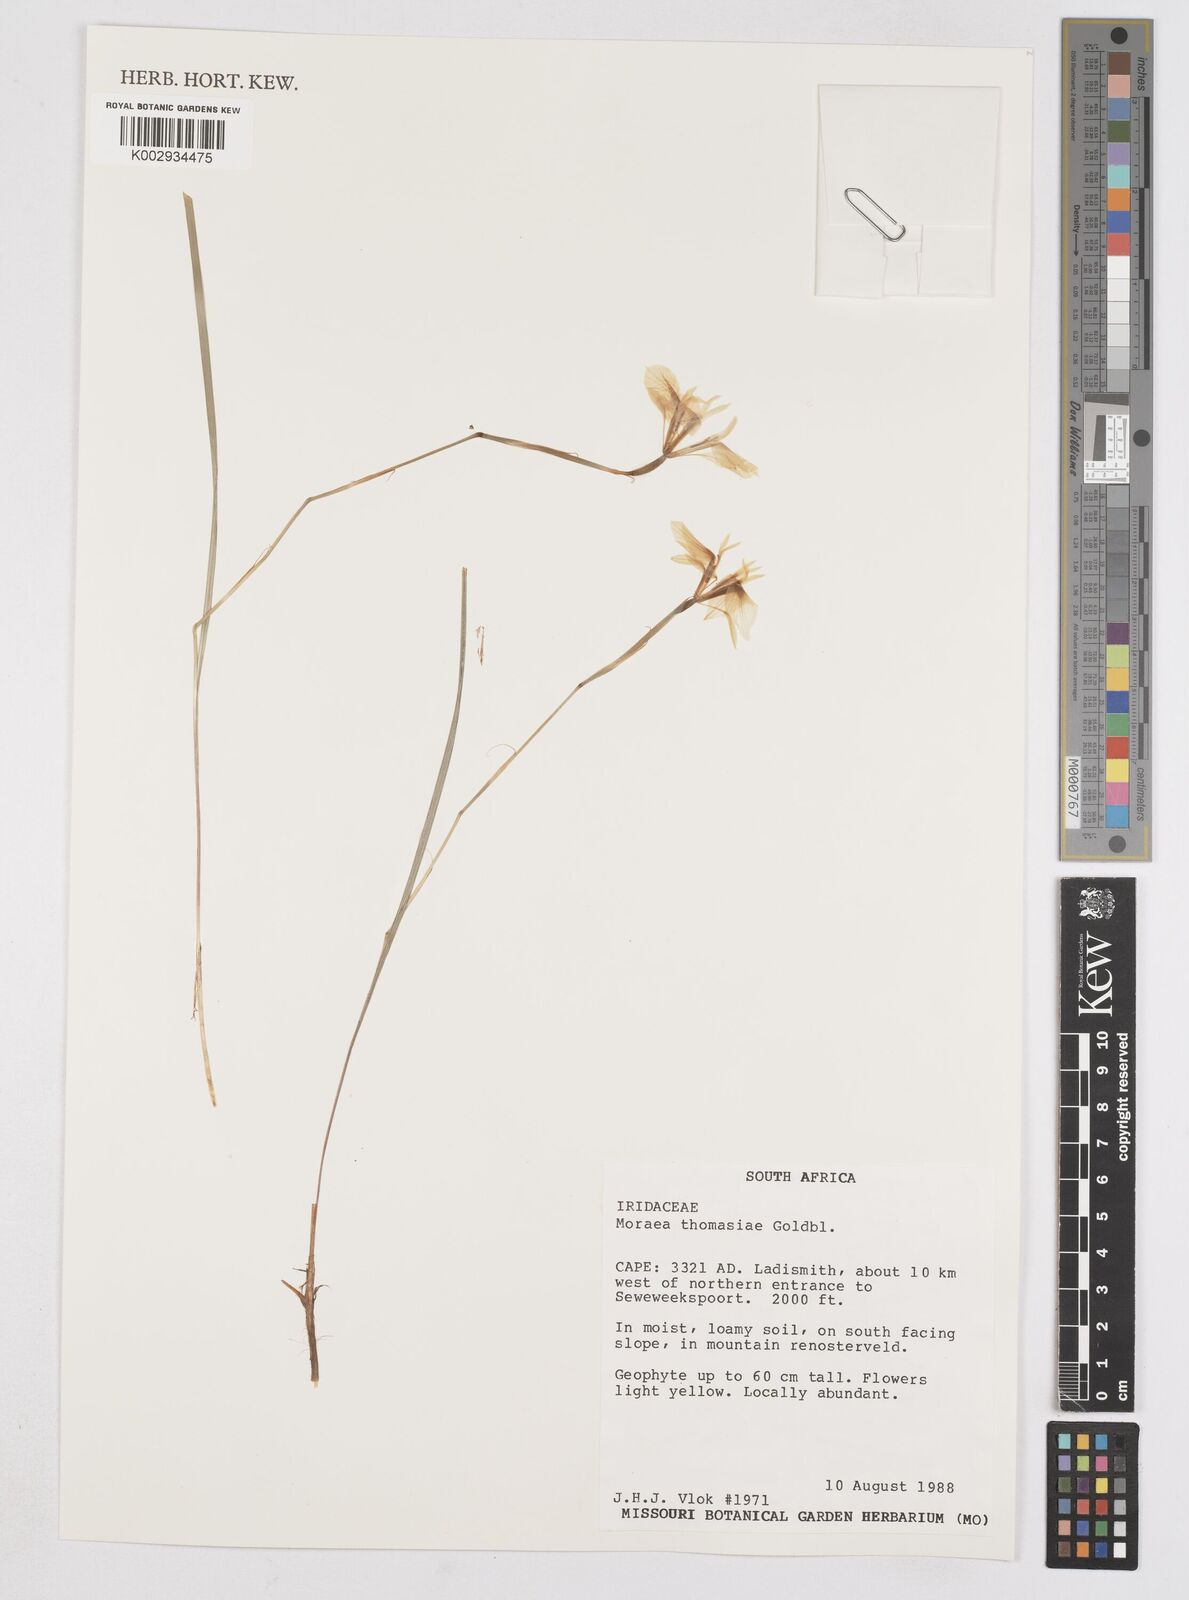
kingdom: Plantae
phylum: Tracheophyta
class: Liliopsida
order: Asparagales
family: Iridaceae
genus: Moraea
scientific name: Moraea thomasiae
